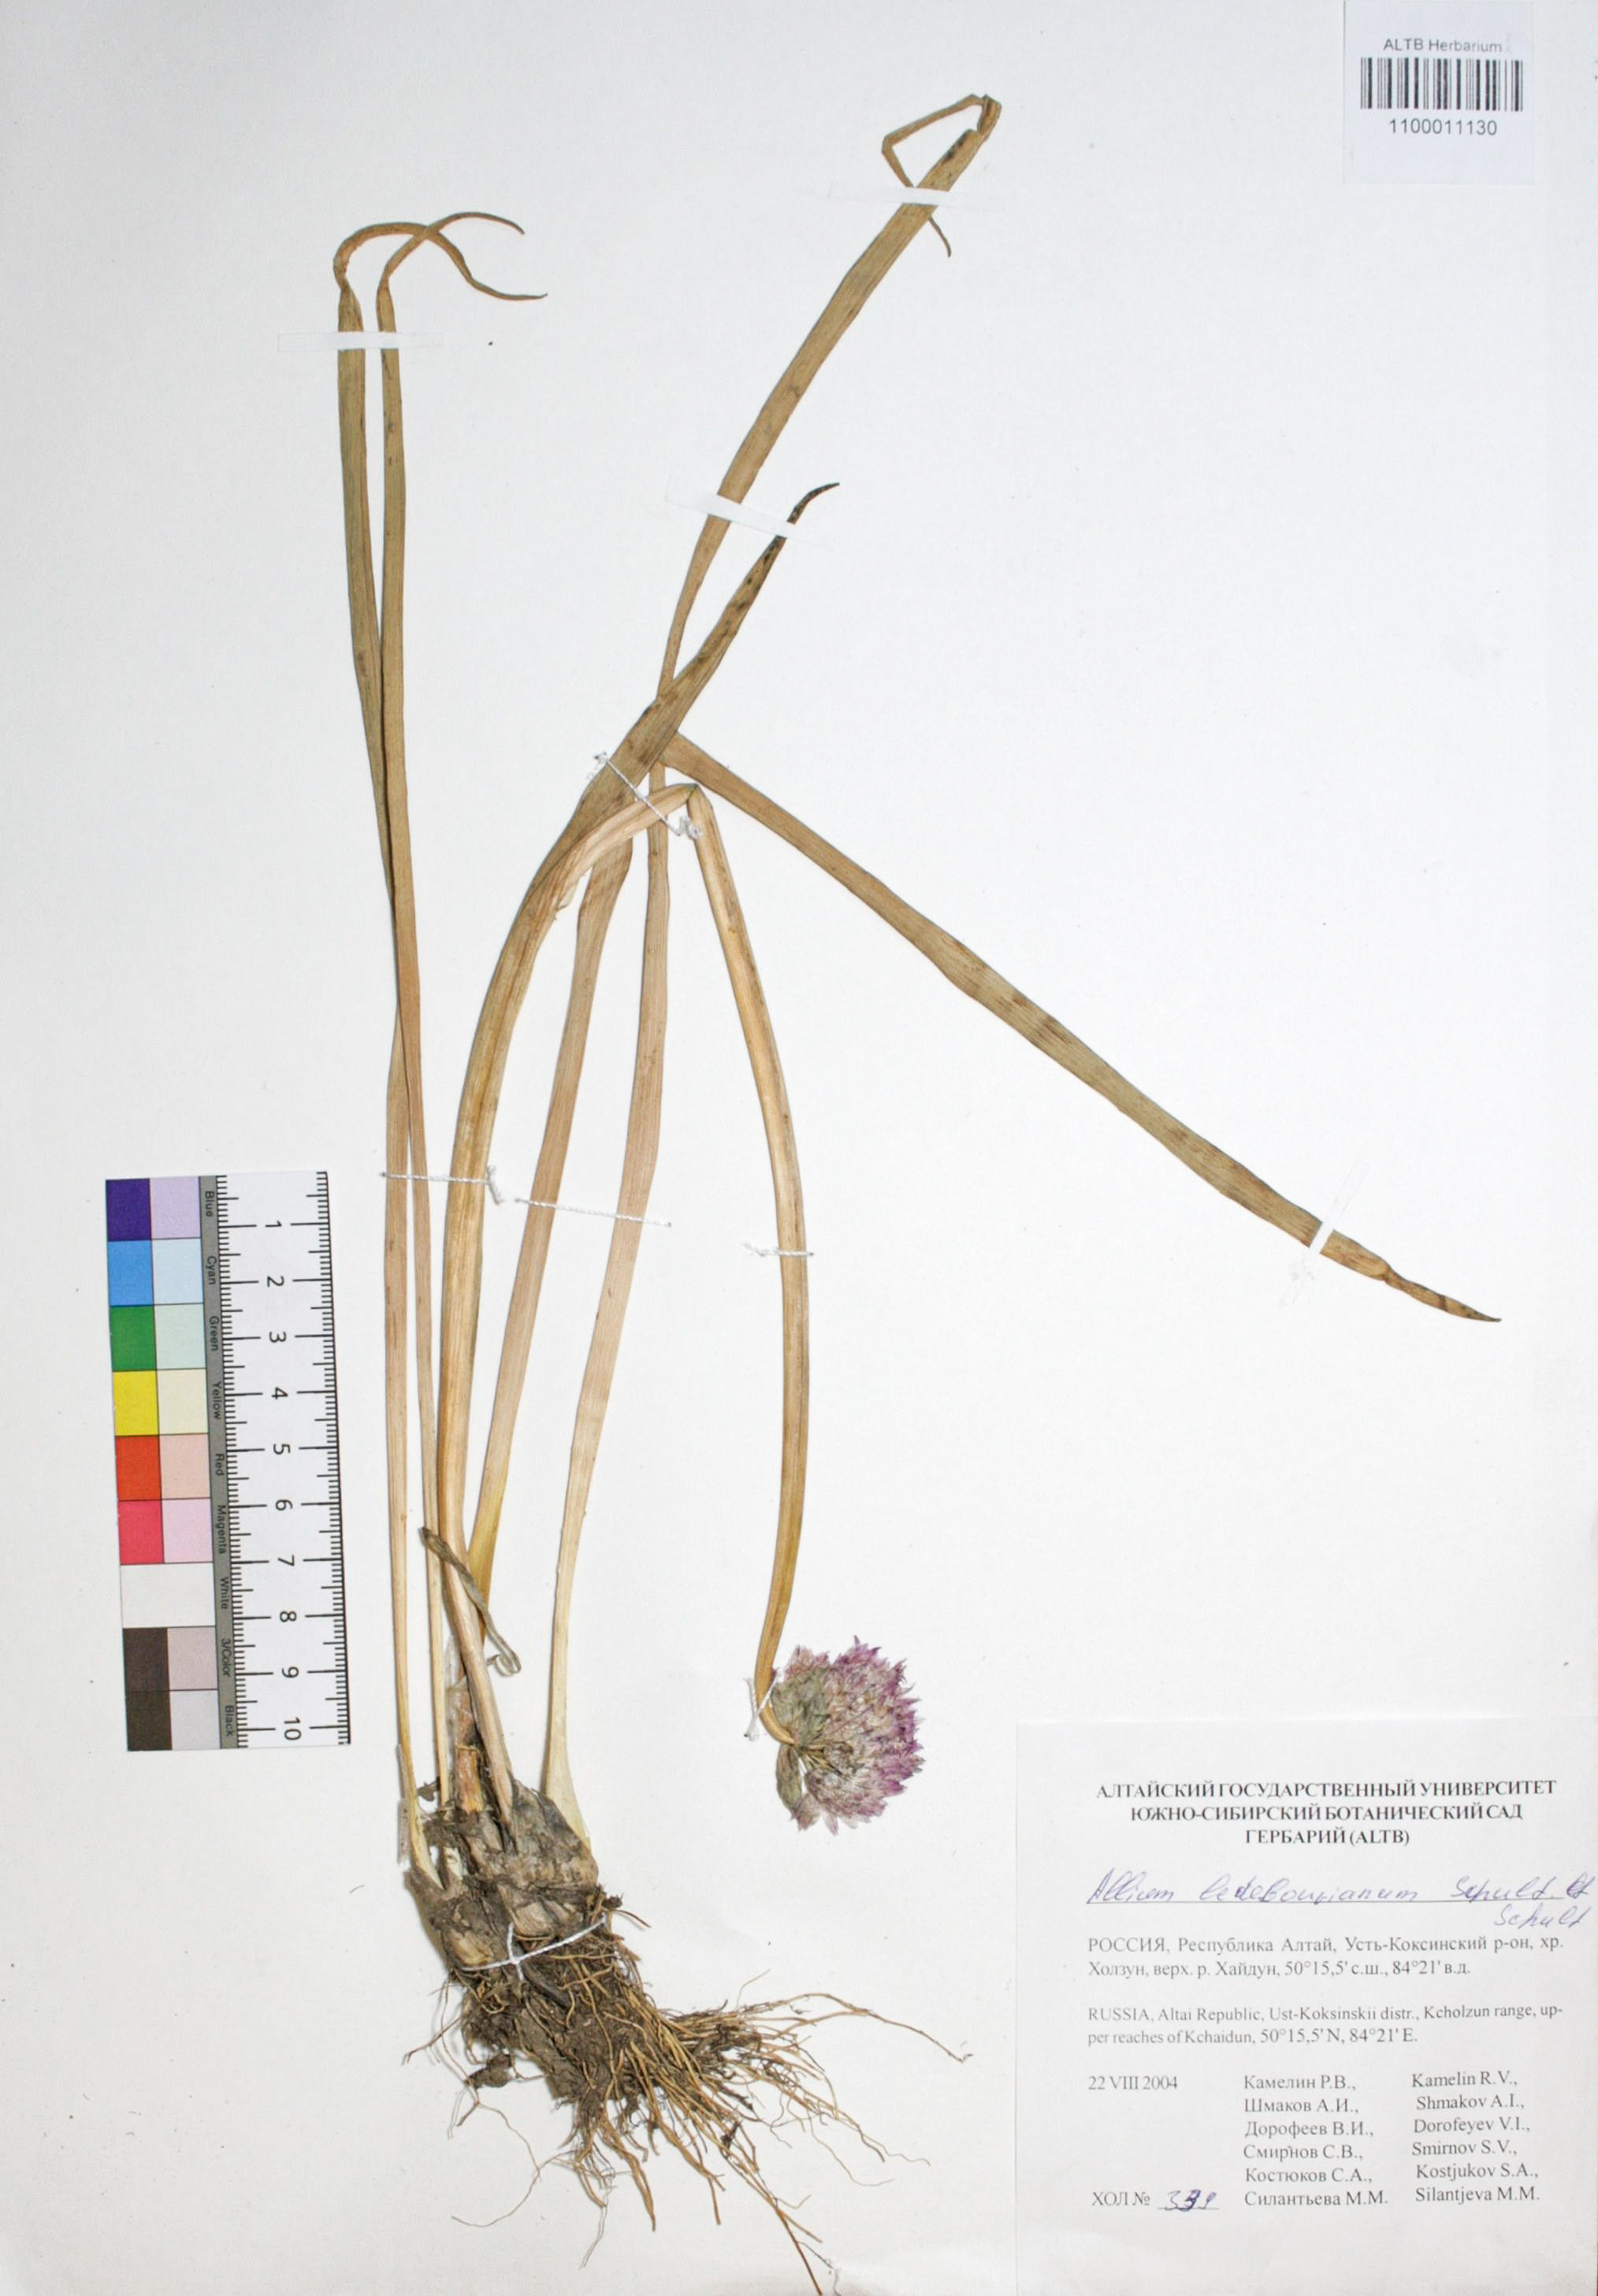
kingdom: Plantae
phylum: Tracheophyta
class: Liliopsida
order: Asparagales
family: Amaryllidaceae
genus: Allium
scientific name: Allium ledebourianum
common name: Ledebour chive
